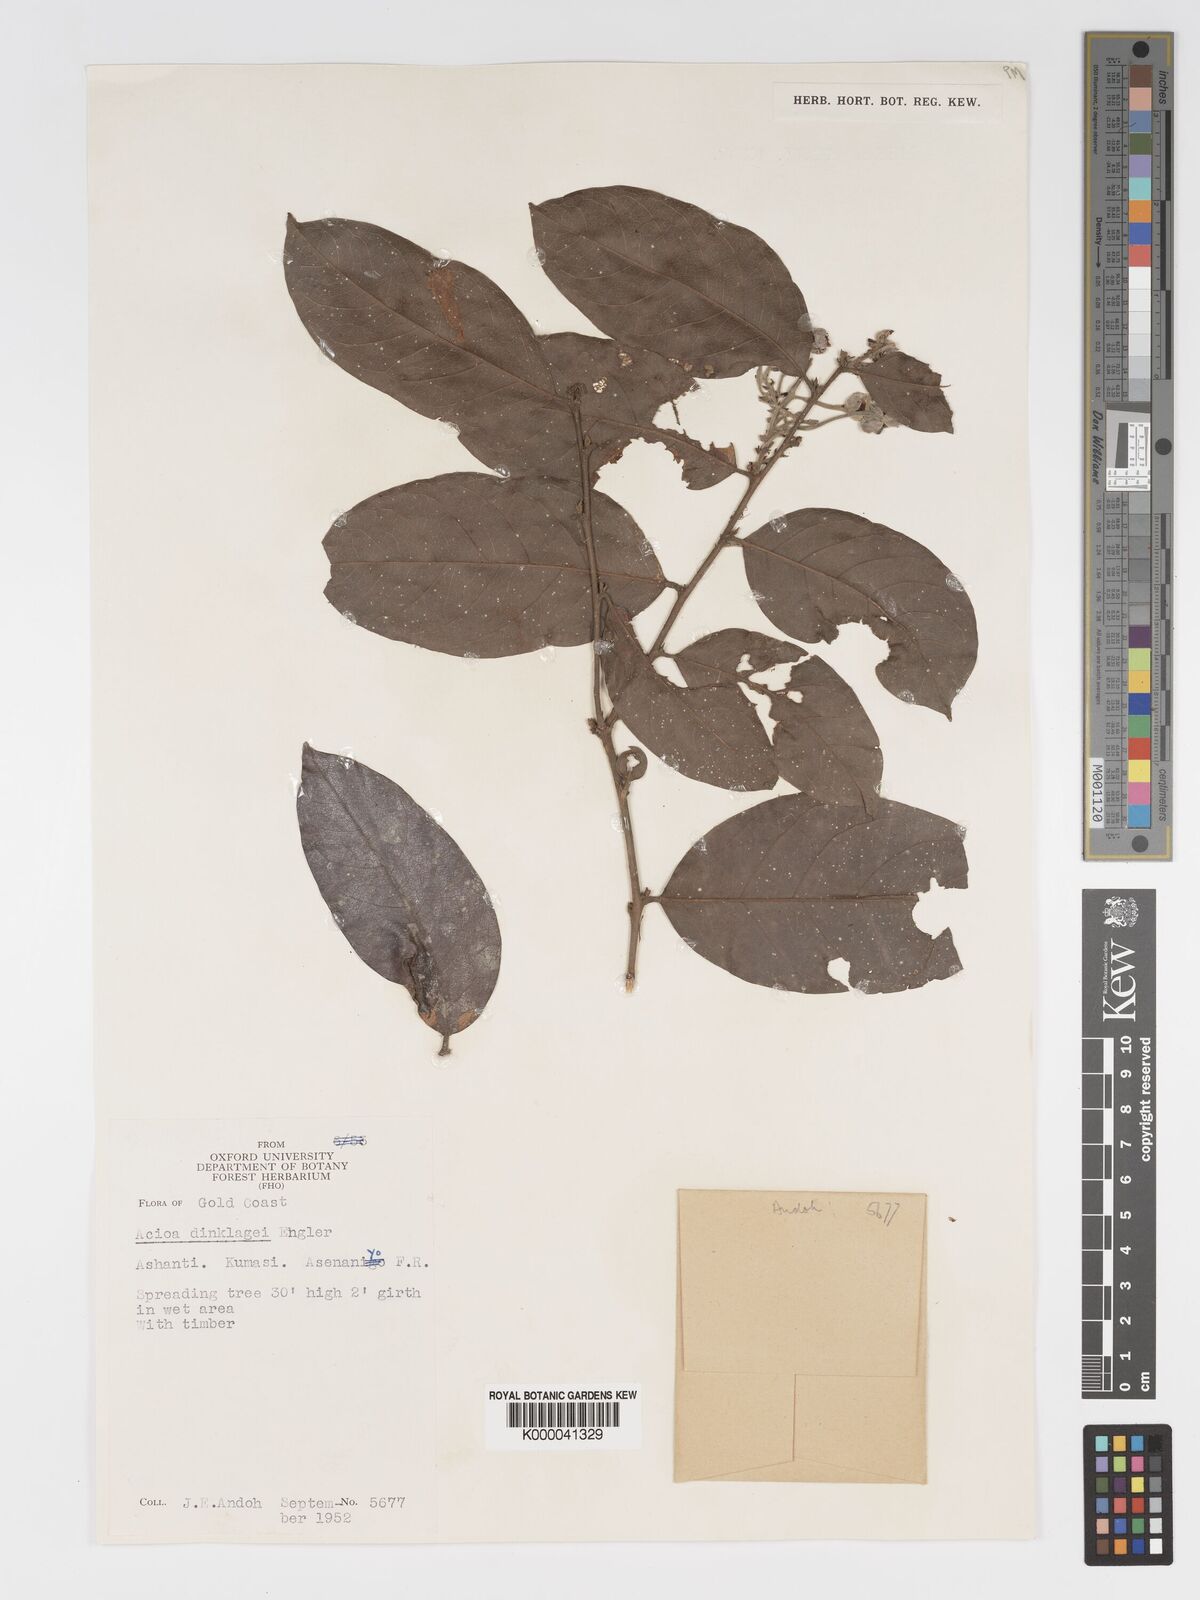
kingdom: Plantae
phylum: Tracheophyta
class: Magnoliopsida
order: Malpighiales
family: Chrysobalanaceae
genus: Dactyladenia
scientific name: Dactyladenia dinklagei
